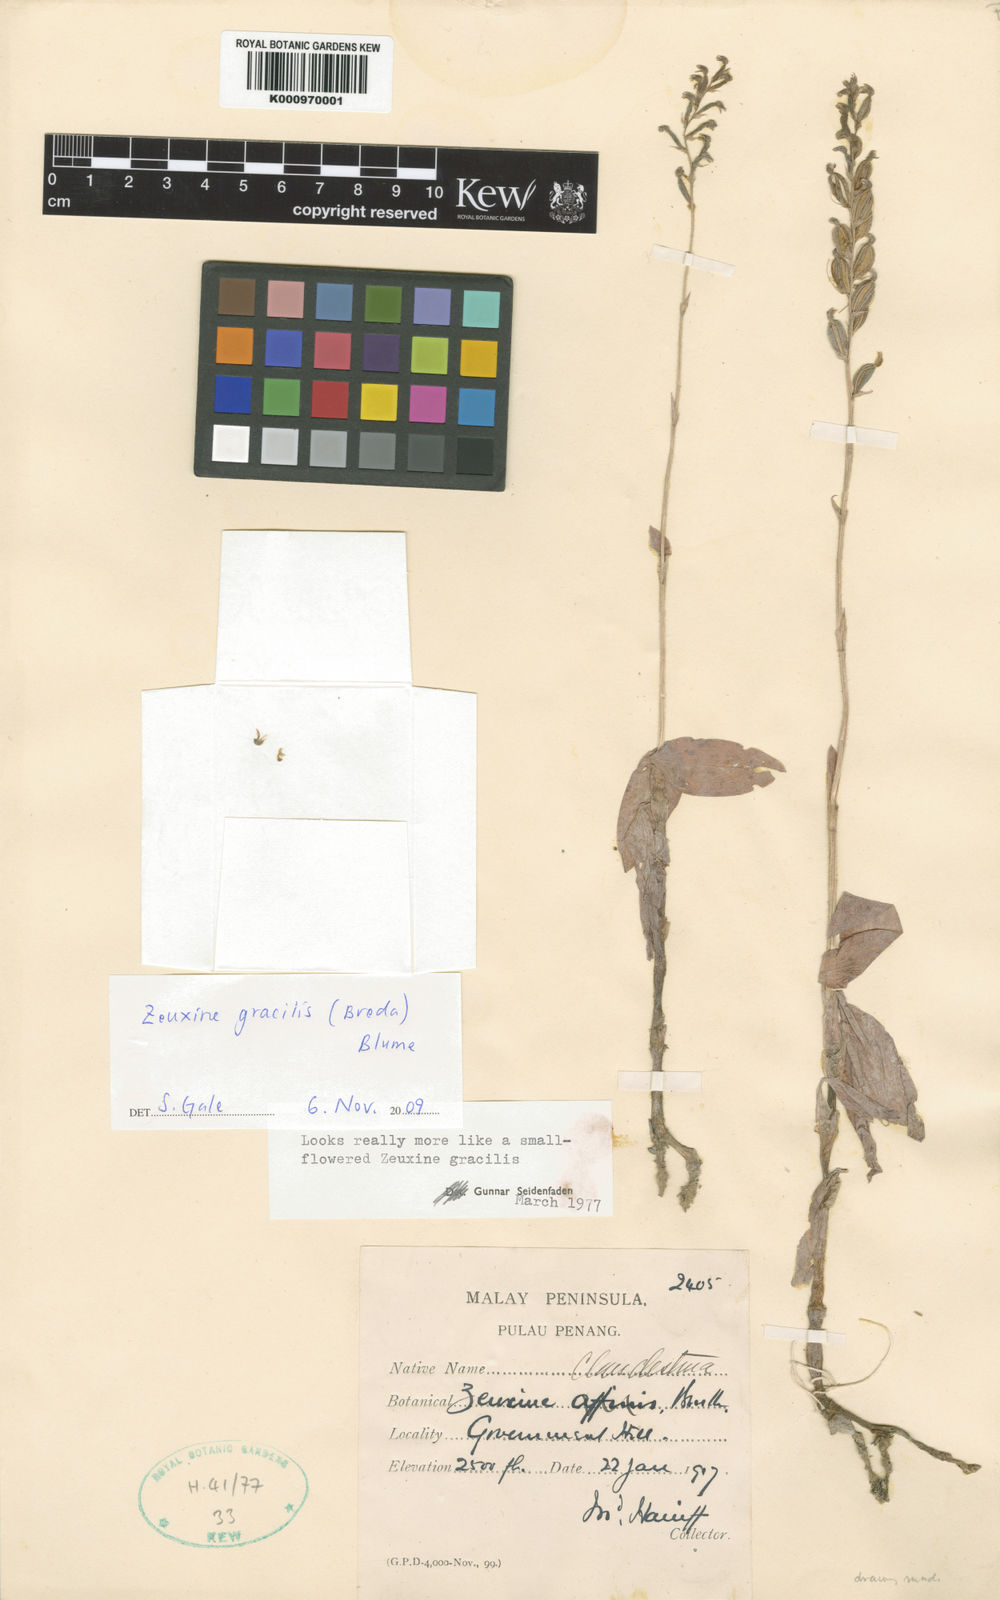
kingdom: Plantae
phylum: Tracheophyta
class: Liliopsida
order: Asparagales
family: Orchidaceae
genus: Zeuxine
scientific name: Zeuxine gracilis
